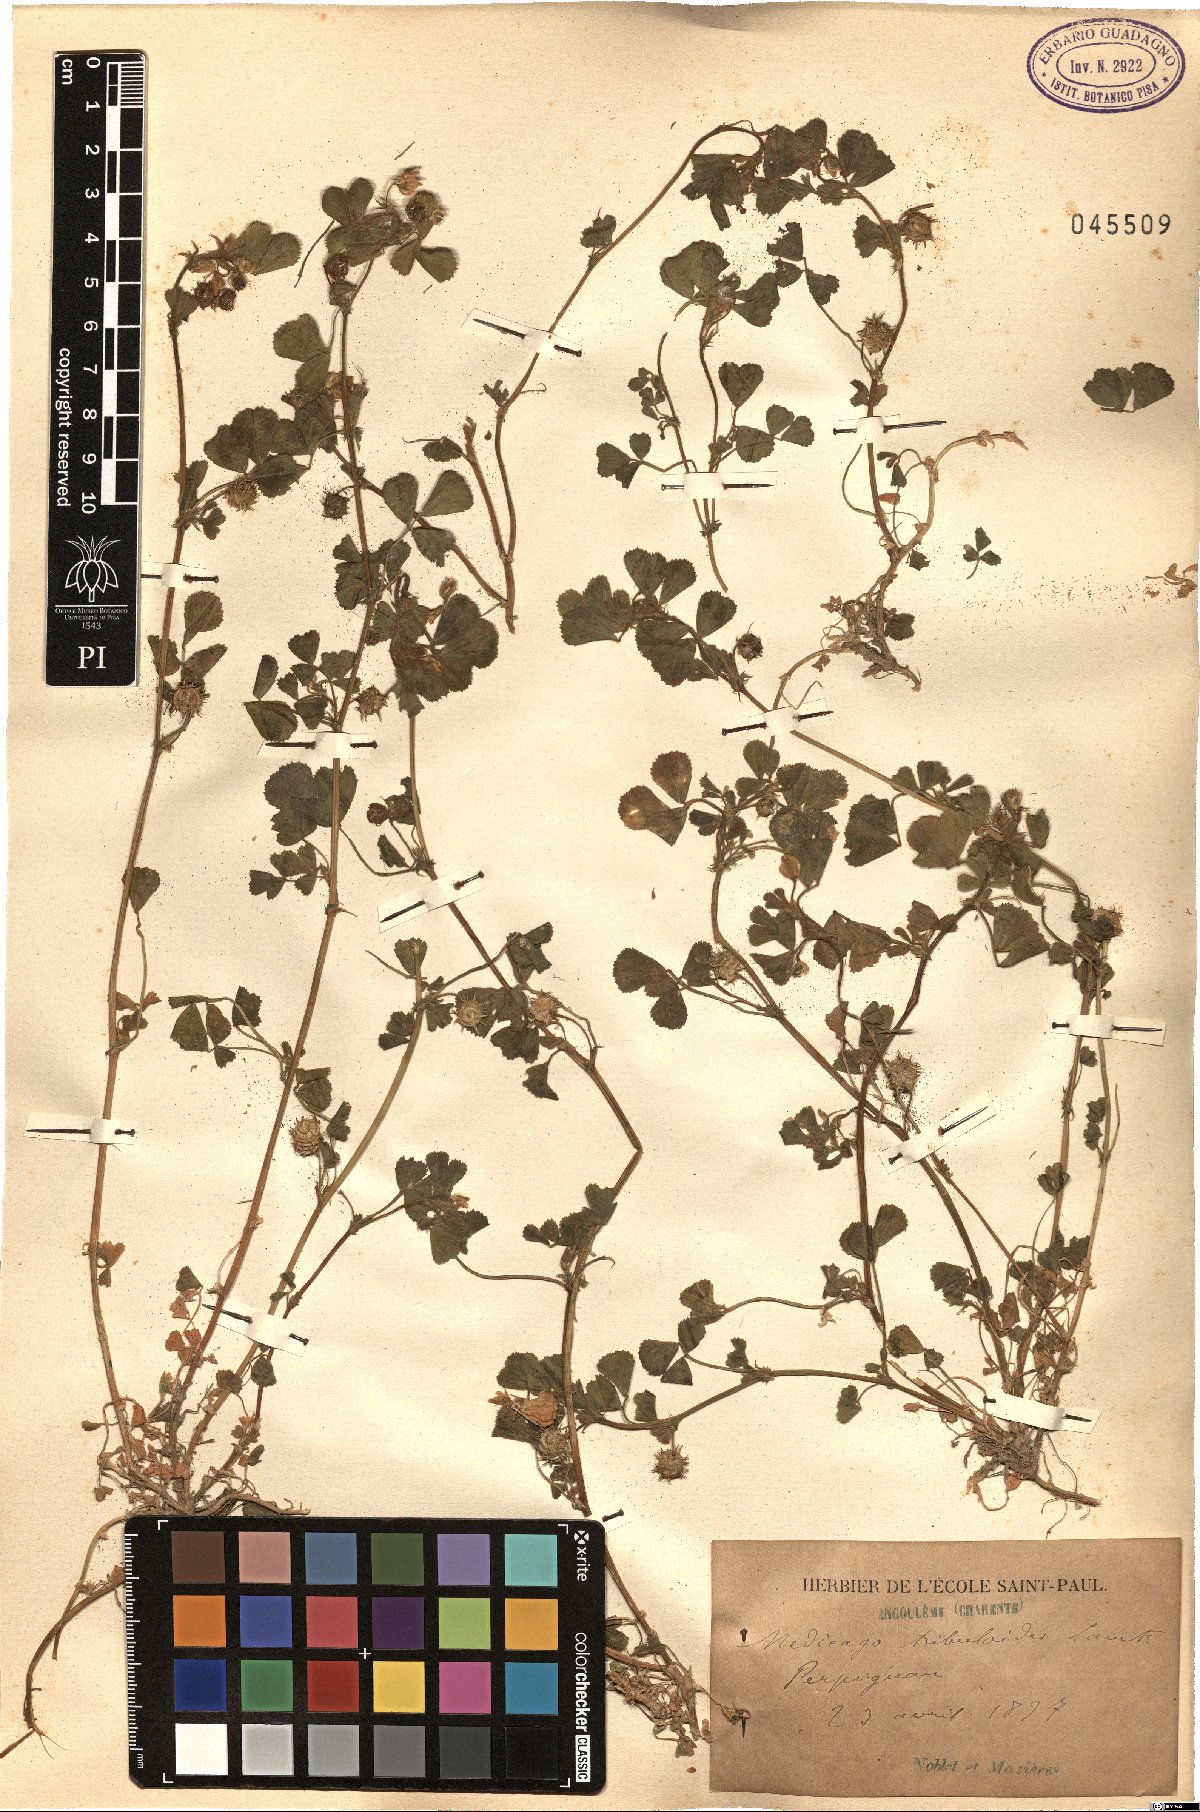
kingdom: Plantae
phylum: Tracheophyta
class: Magnoliopsida
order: Fabales
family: Fabaceae
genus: Medicago
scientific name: Medicago truncatula
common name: Strong-spined medick
